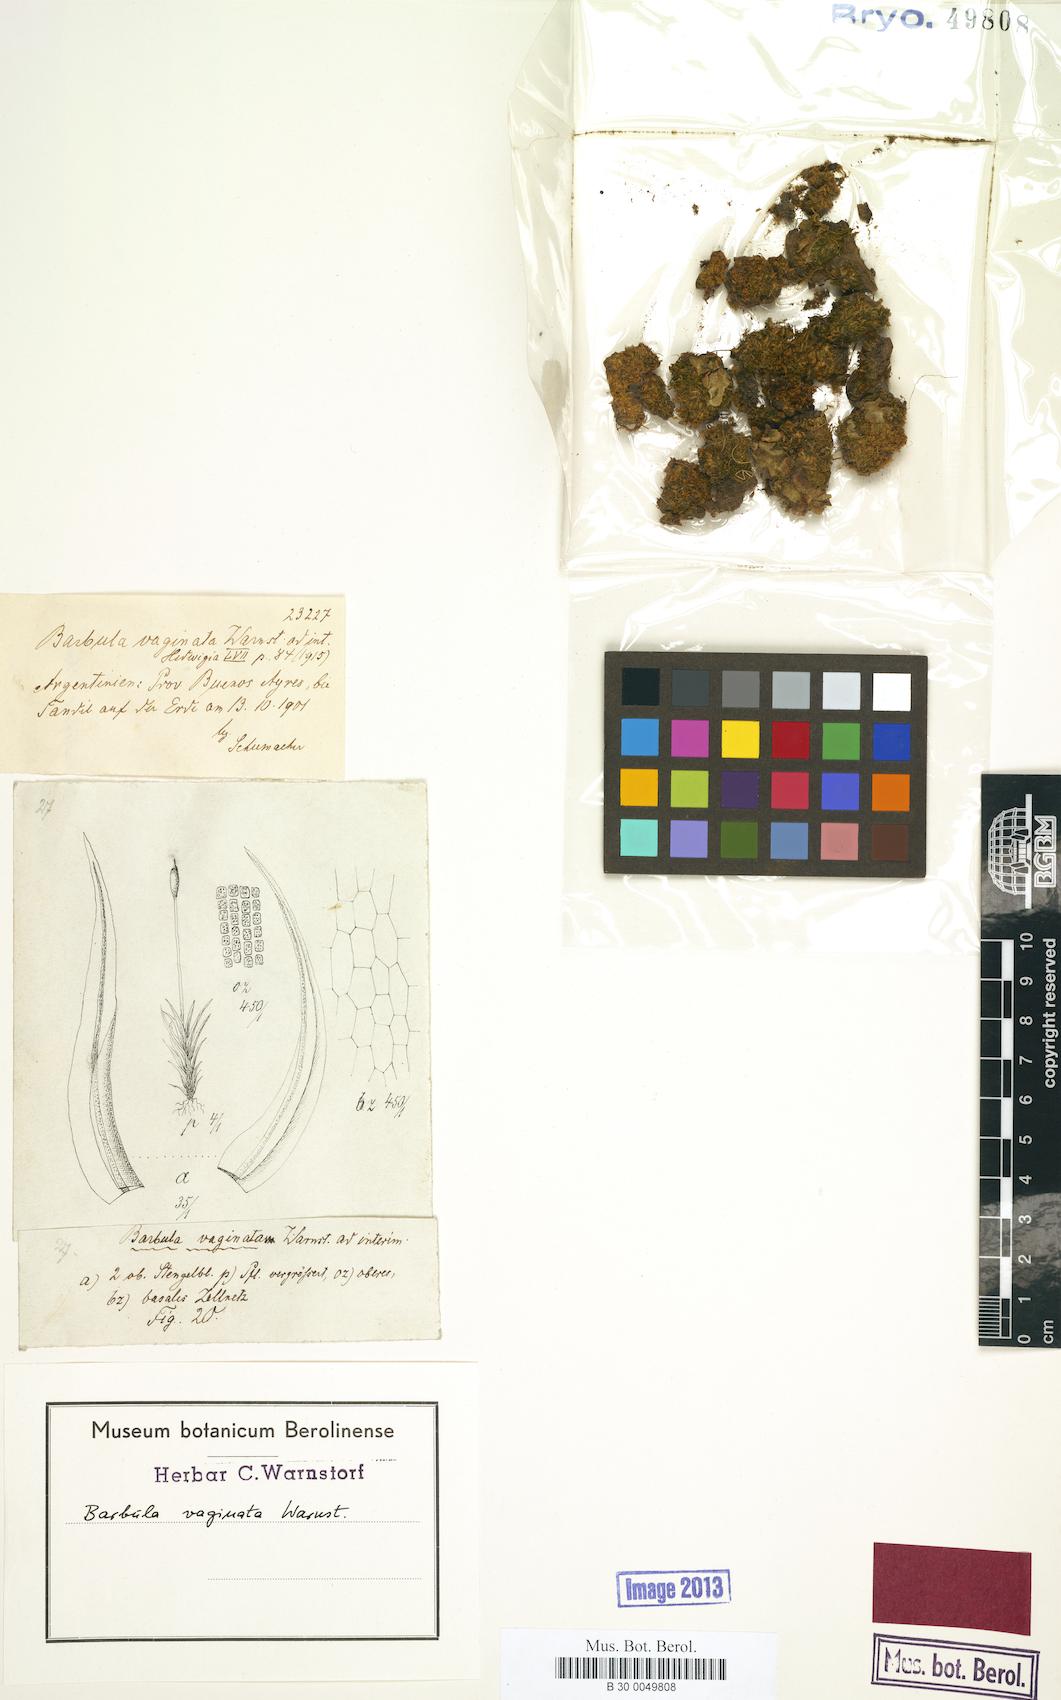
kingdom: Plantae
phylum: Bryophyta
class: Bryopsida
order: Pottiales
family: Pottiaceae
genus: Barbula
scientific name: Barbula vaginata
